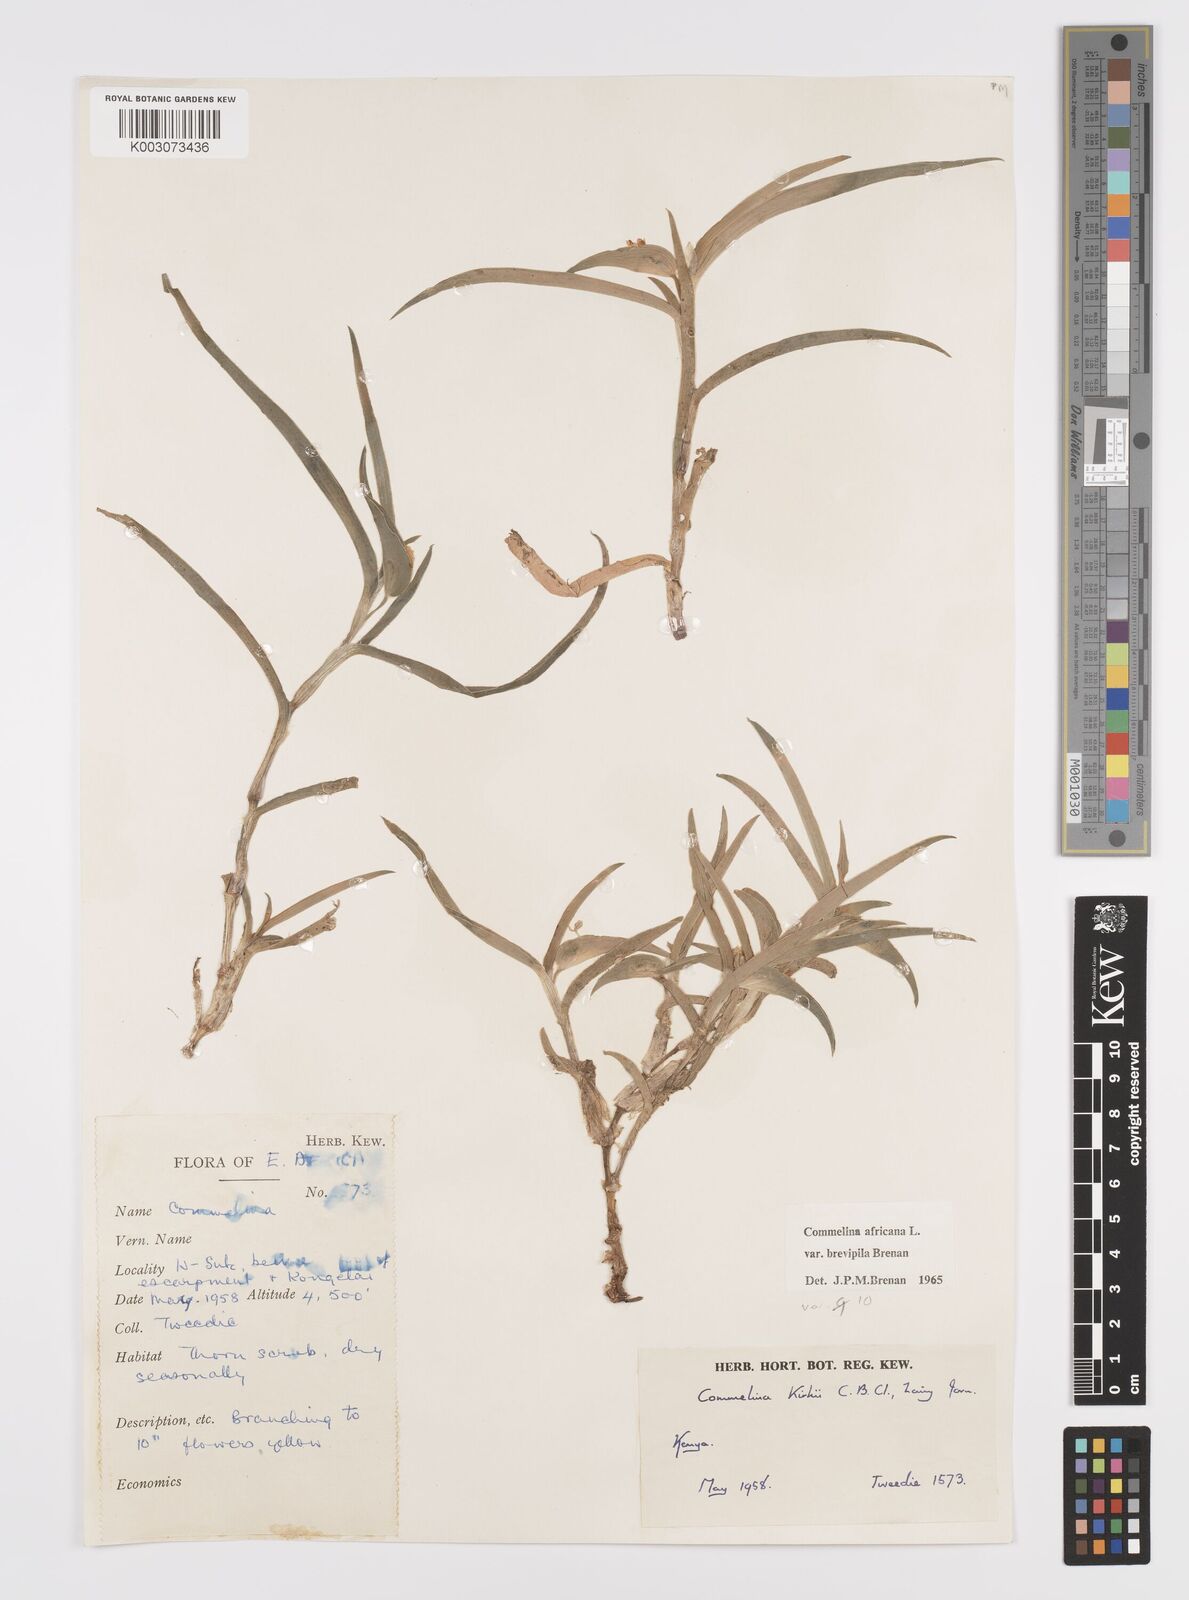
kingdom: Plantae
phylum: Tracheophyta
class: Liliopsida
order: Commelinales
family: Commelinaceae
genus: Commelina
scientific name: Commelina africana
